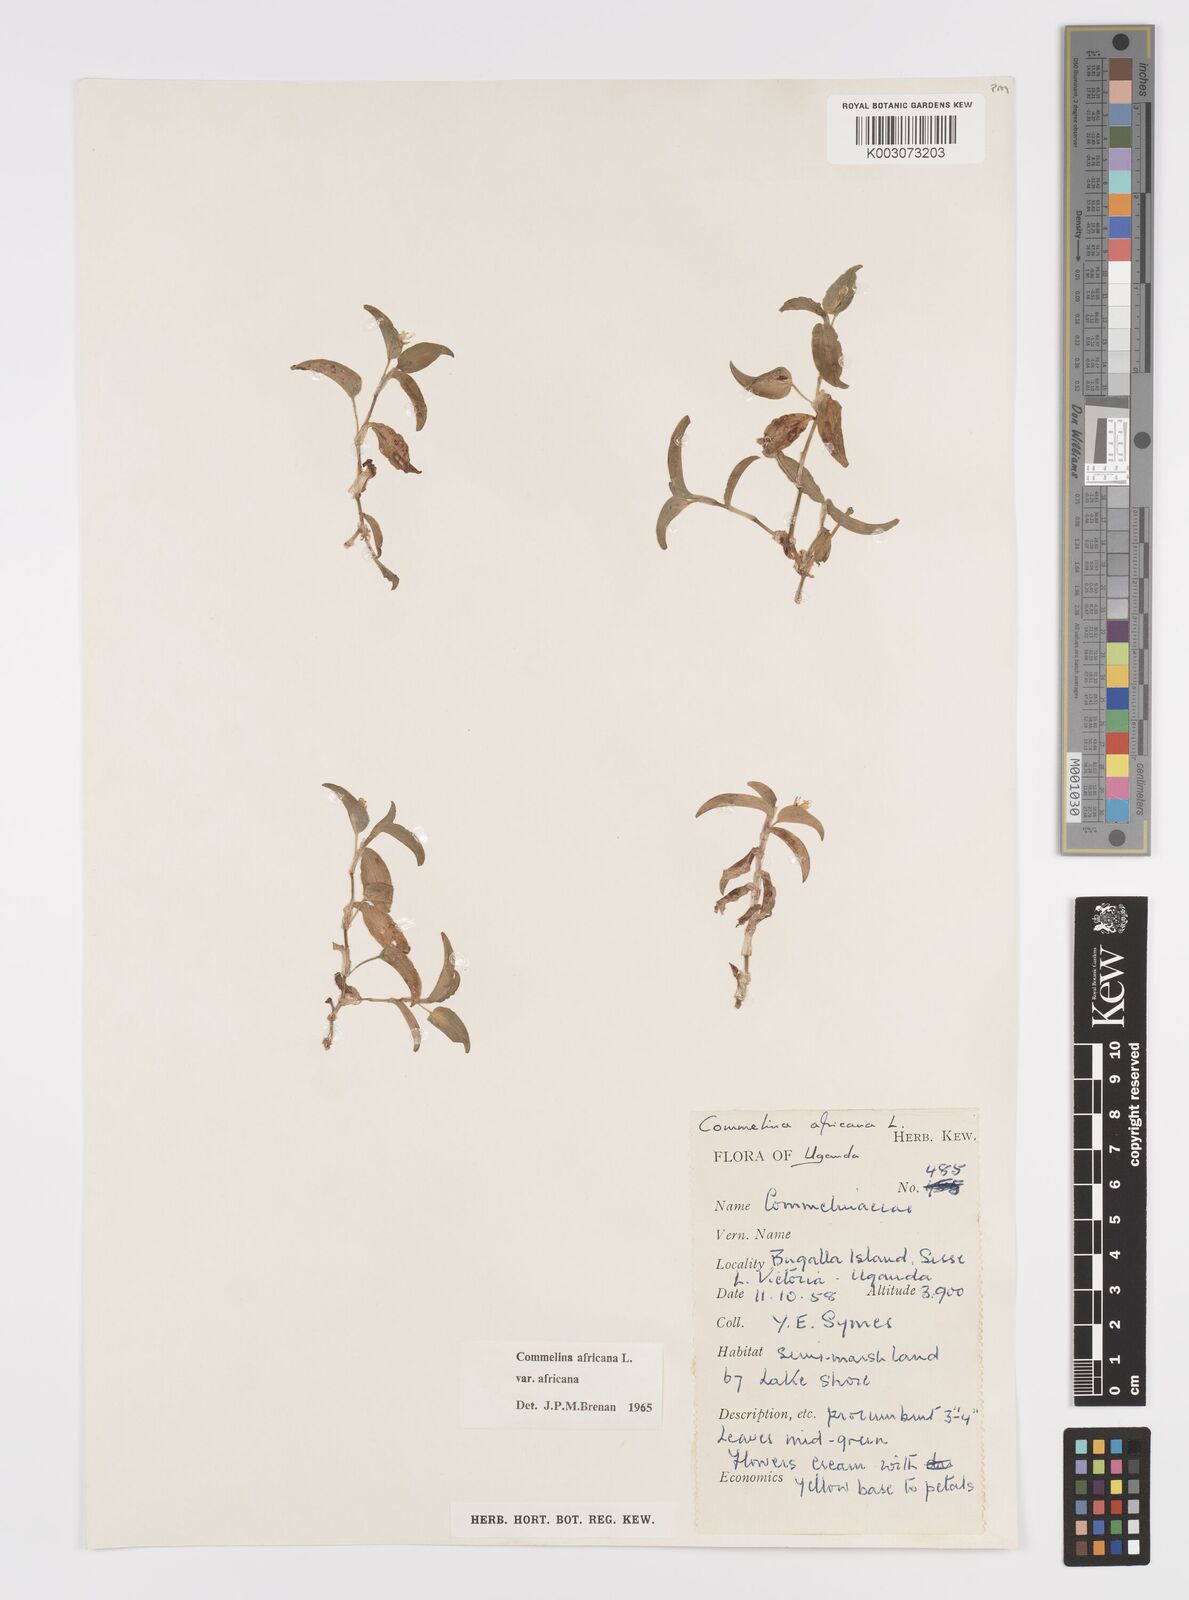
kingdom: Plantae
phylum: Tracheophyta
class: Liliopsida
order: Commelinales
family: Commelinaceae
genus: Commelina
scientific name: Commelina africana
